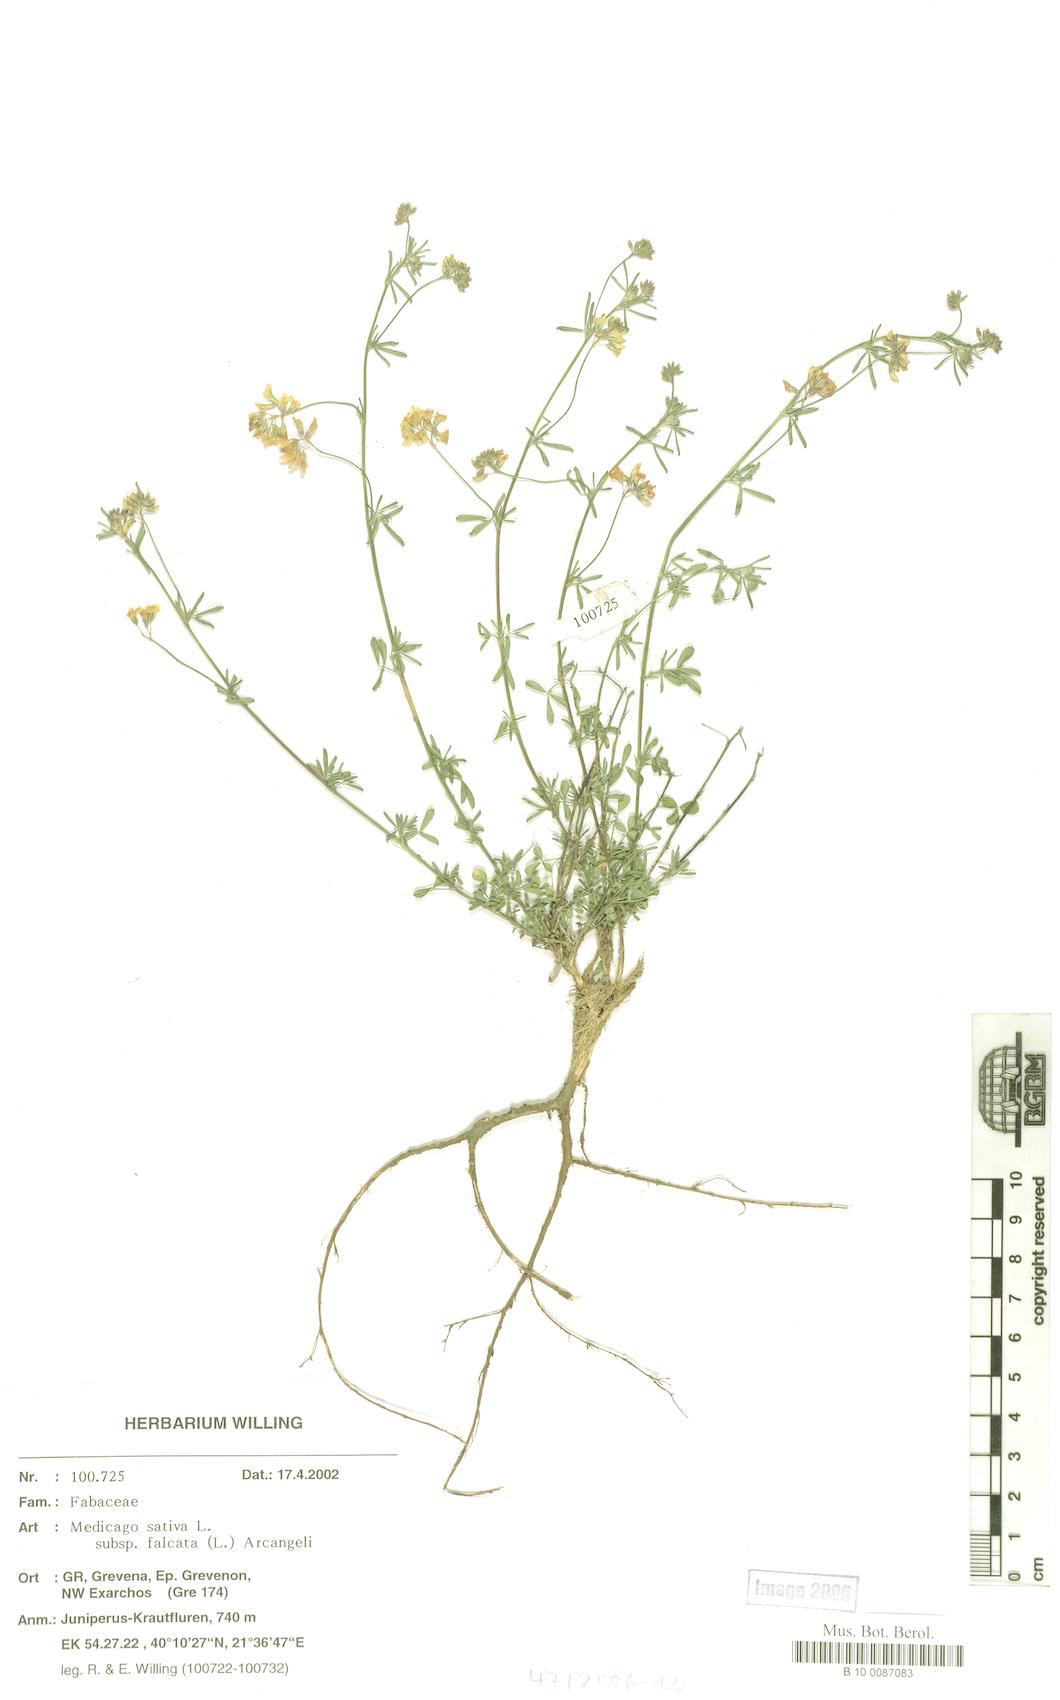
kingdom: Plantae
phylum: Tracheophyta
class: Magnoliopsida
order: Fabales
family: Fabaceae
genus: Medicago
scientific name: Medicago falcata
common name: Sickle medick
